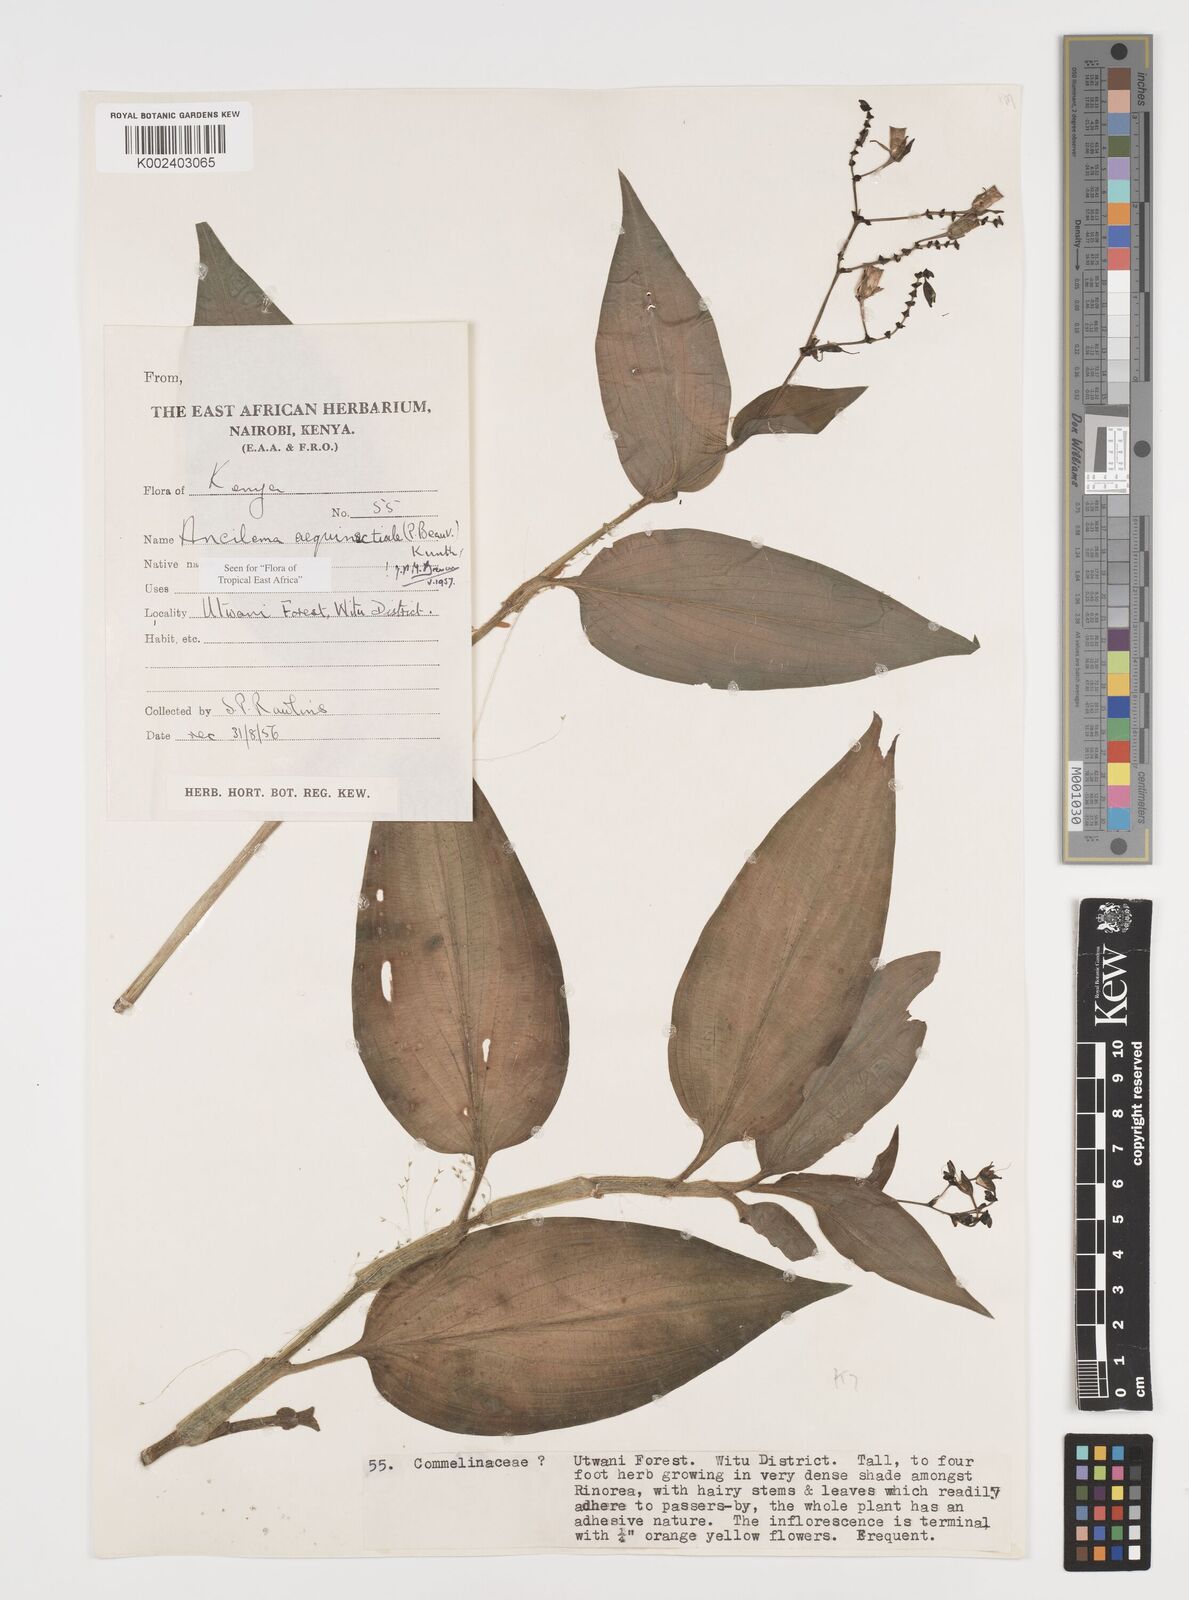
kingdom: Plantae
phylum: Tracheophyta
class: Liliopsida
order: Commelinales
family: Commelinaceae
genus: Aneilema
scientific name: Aneilema aequinoctiale
